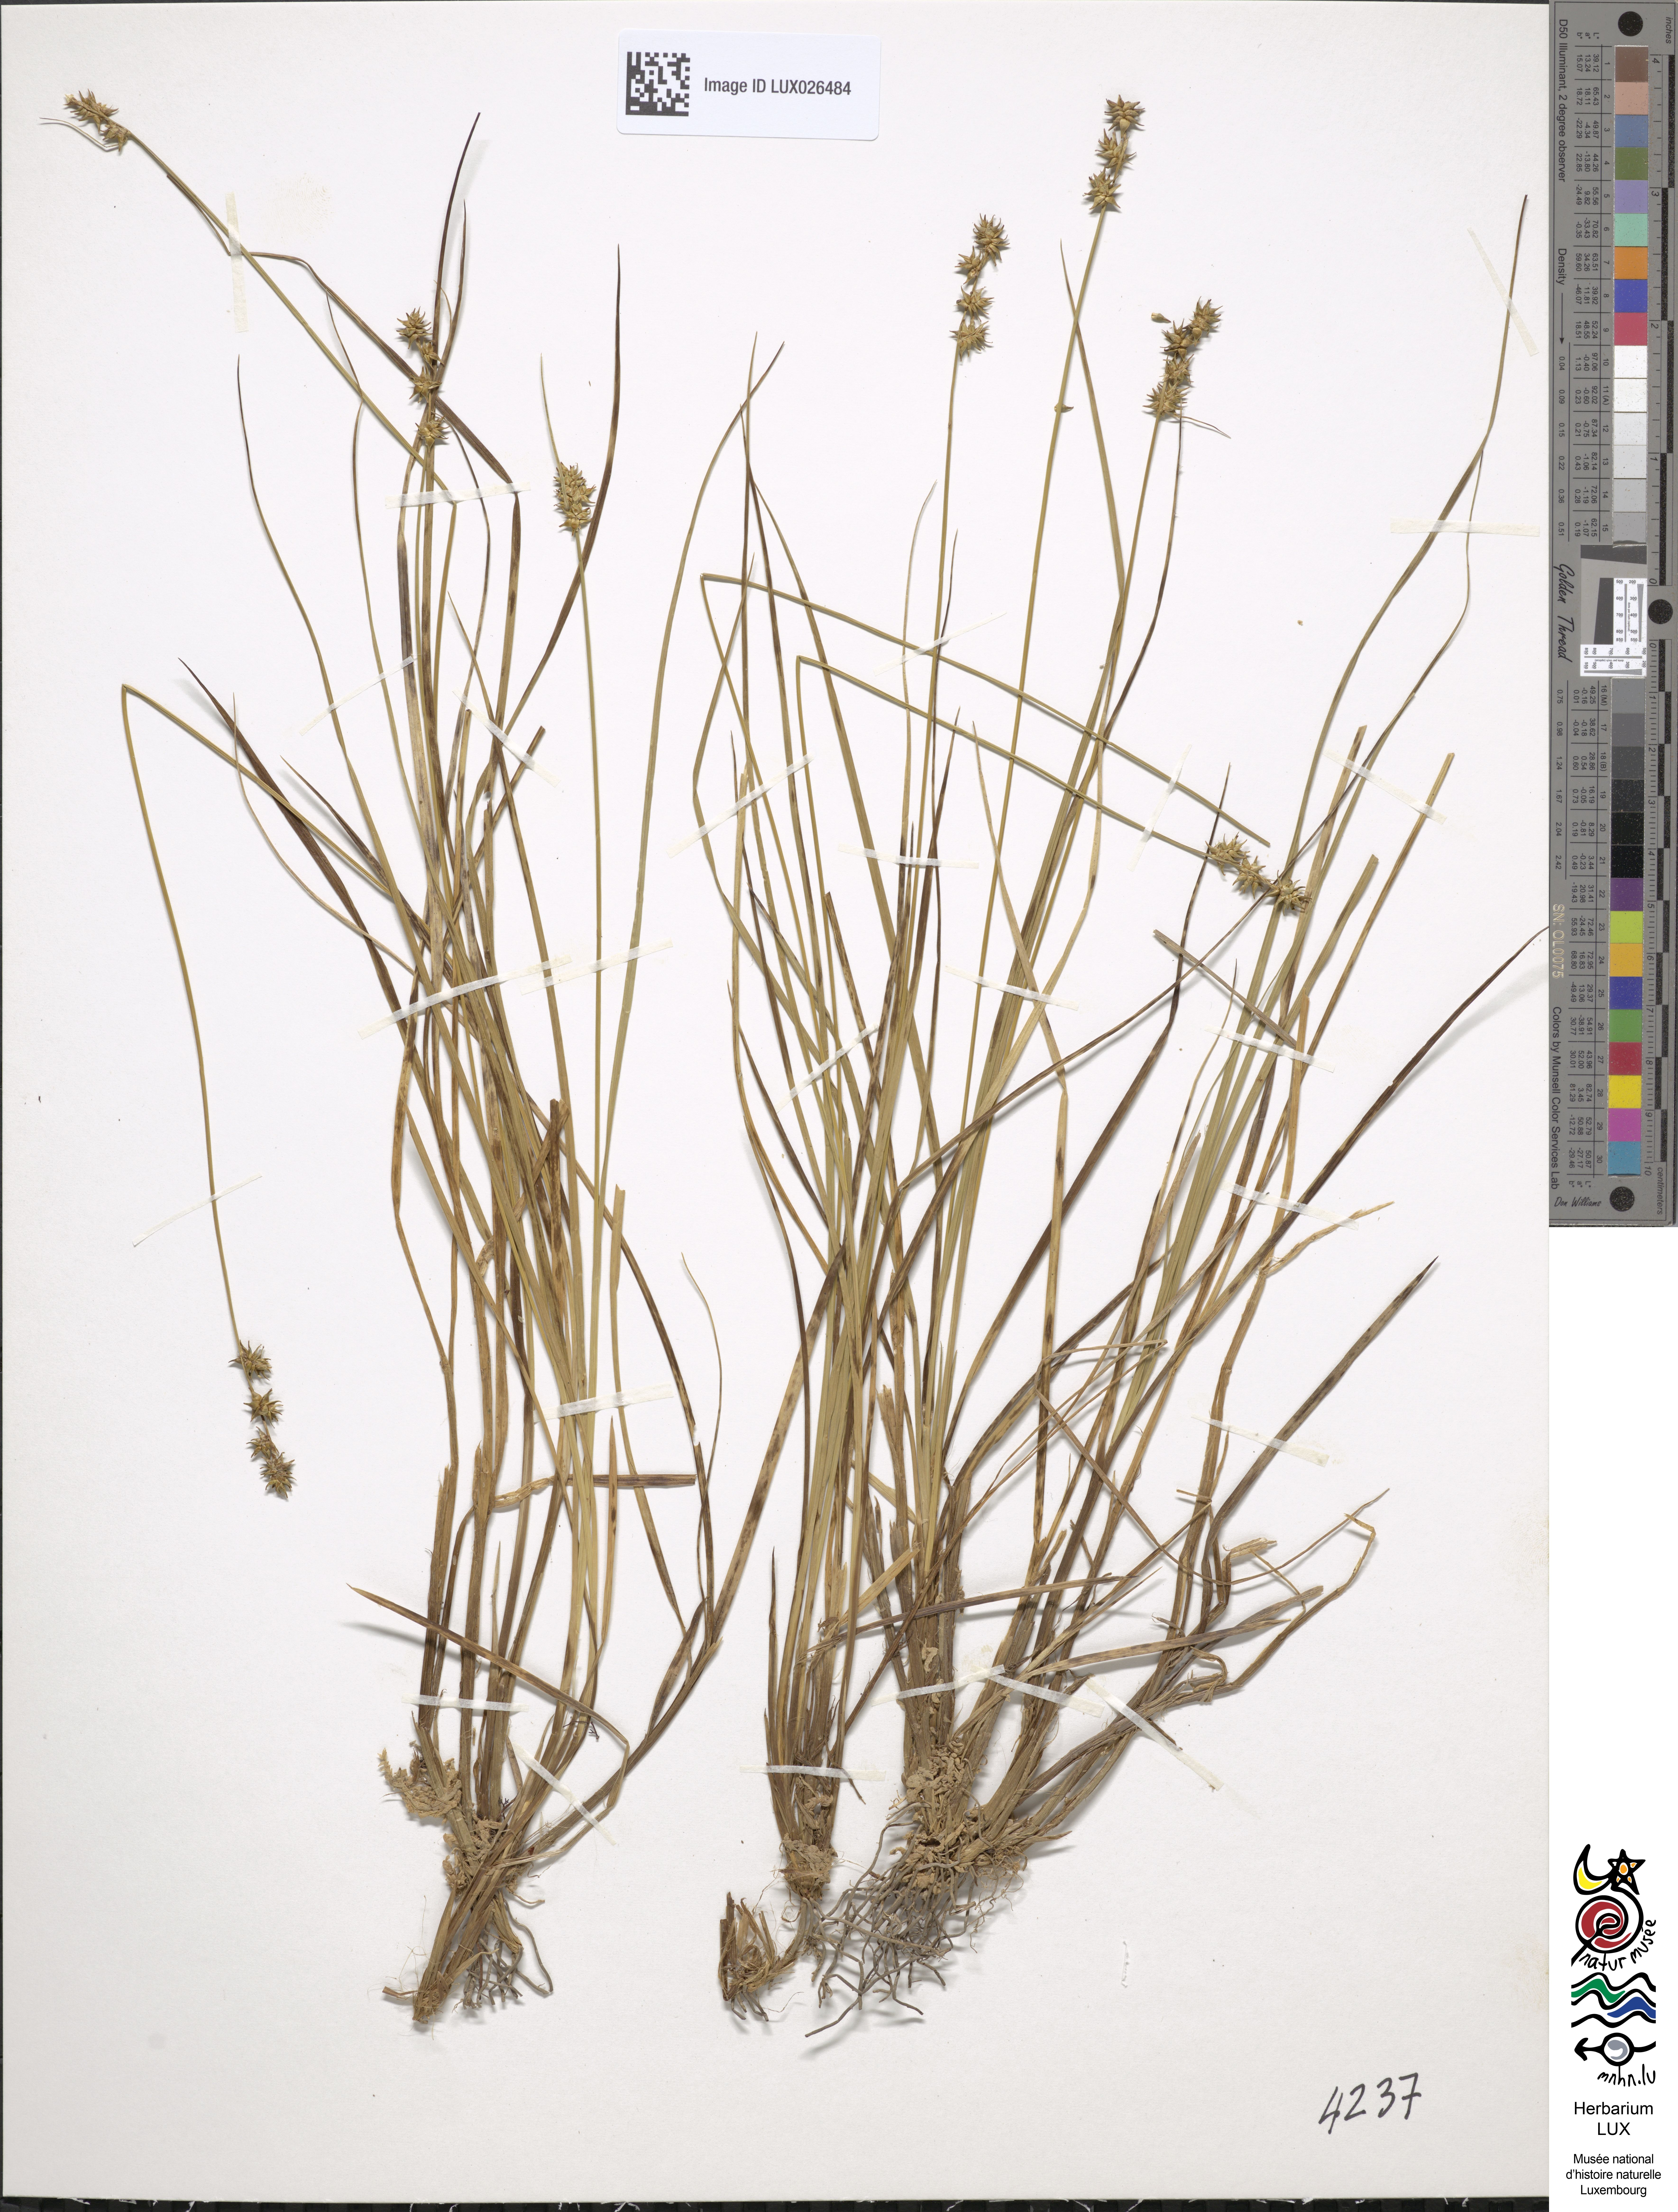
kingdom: Plantae
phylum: Tracheophyta
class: Liliopsida
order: Poales
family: Cyperaceae
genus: Carex
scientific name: Carex echinata
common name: Star sedge
